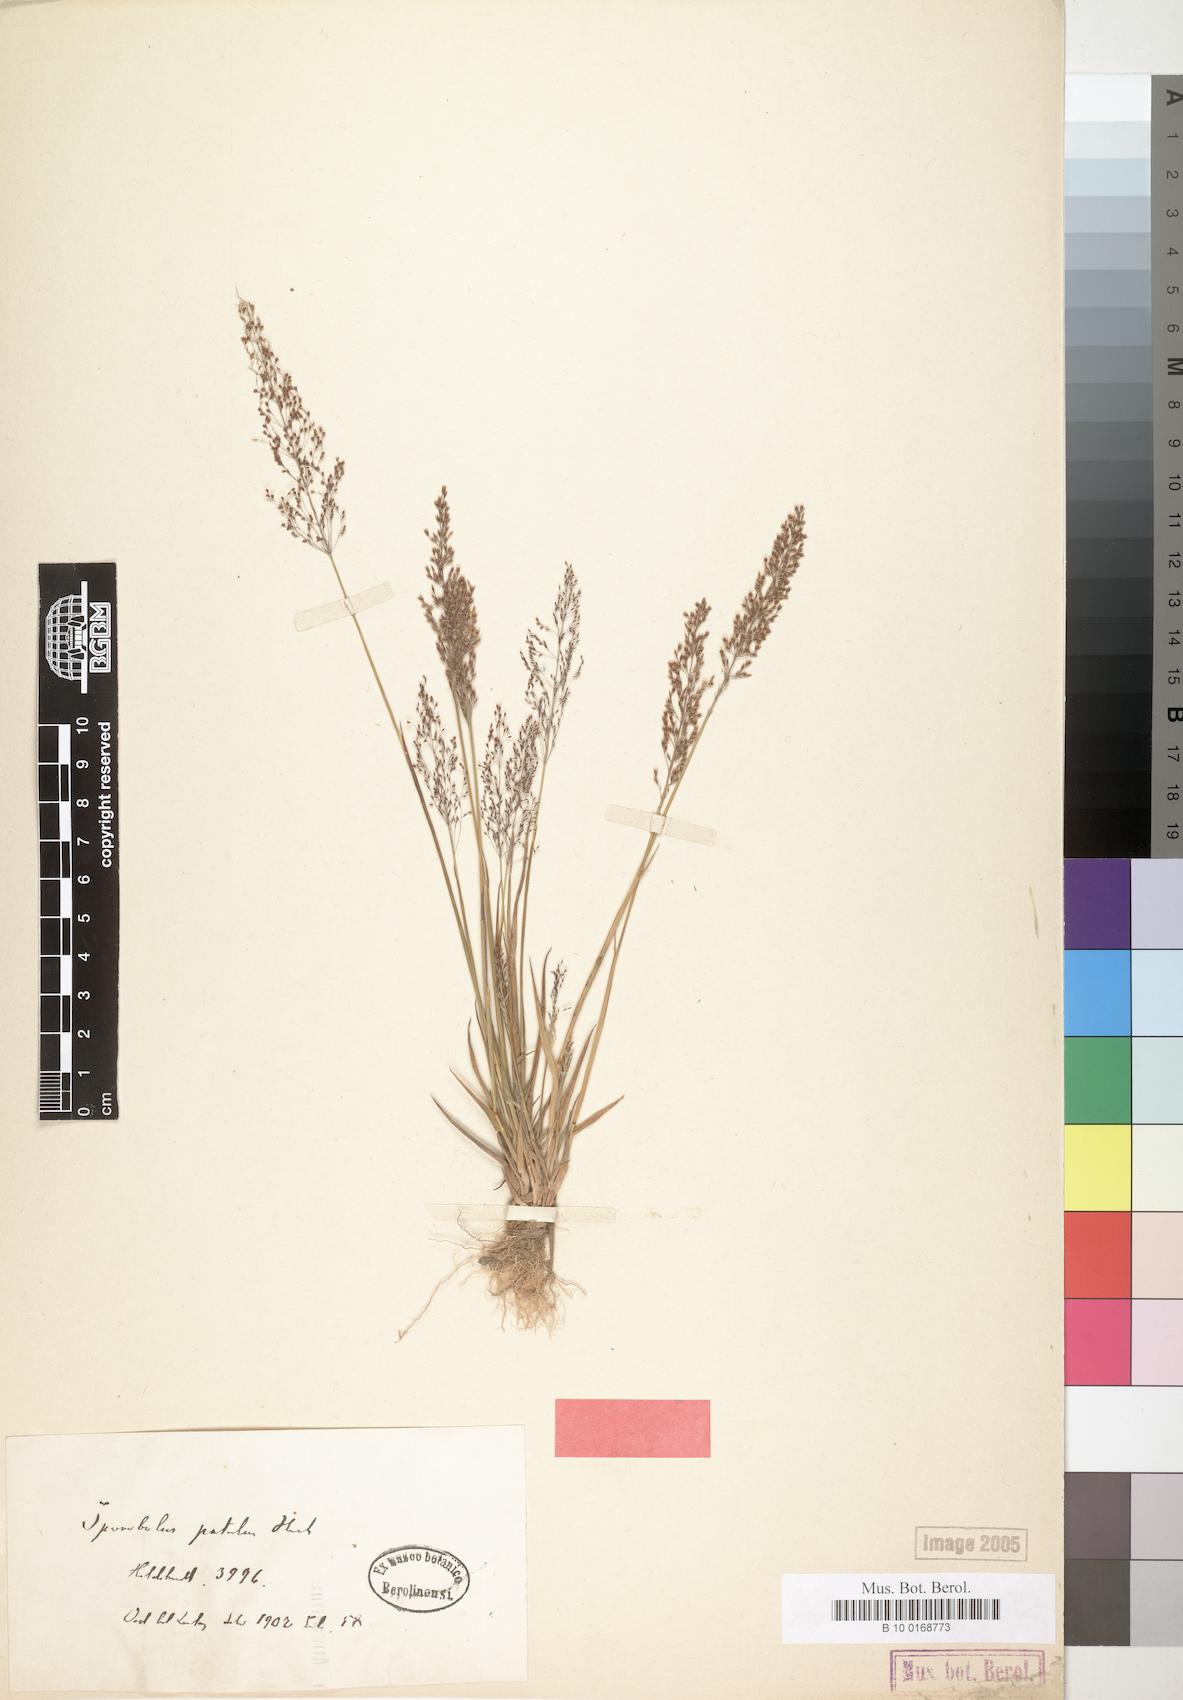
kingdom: Plantae
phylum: Tracheophyta
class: Liliopsida
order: Poales
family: Poaceae
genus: Sporobolus
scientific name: Sporobolus paniculatus
